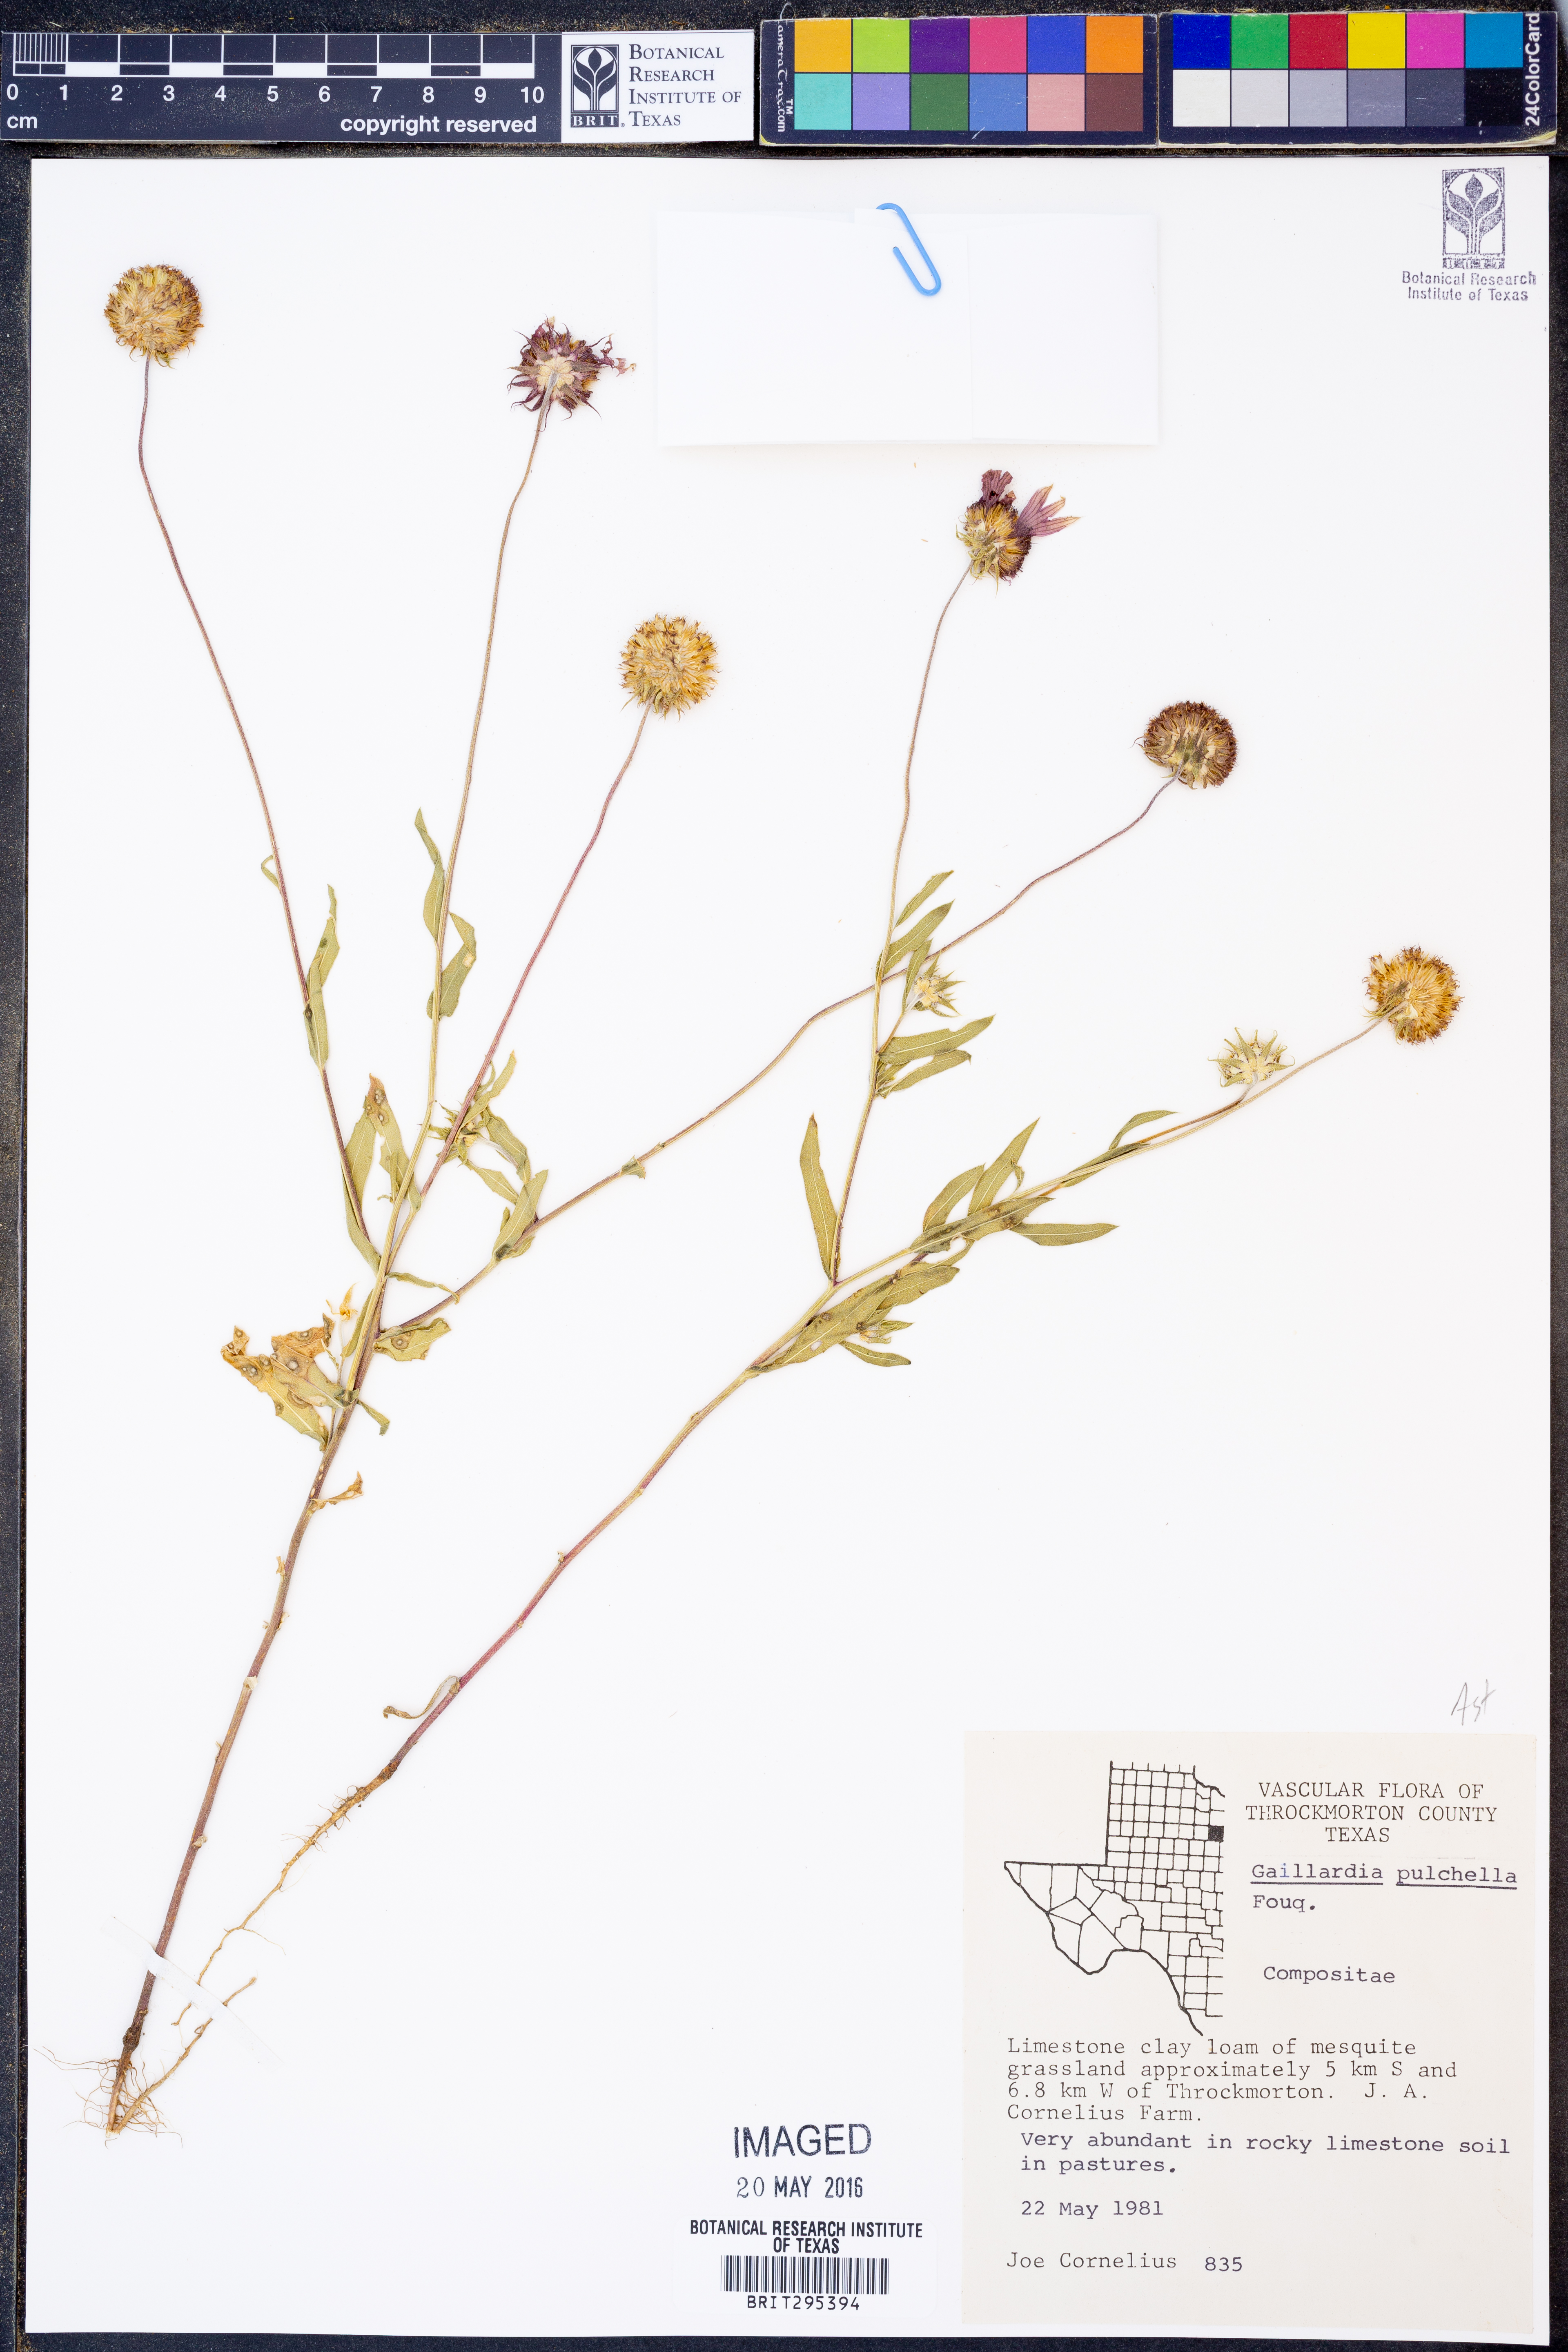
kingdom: Plantae
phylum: Tracheophyta
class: Magnoliopsida
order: Asterales
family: Asteraceae
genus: Gaillardia
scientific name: Gaillardia pulchella
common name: Firewheel
